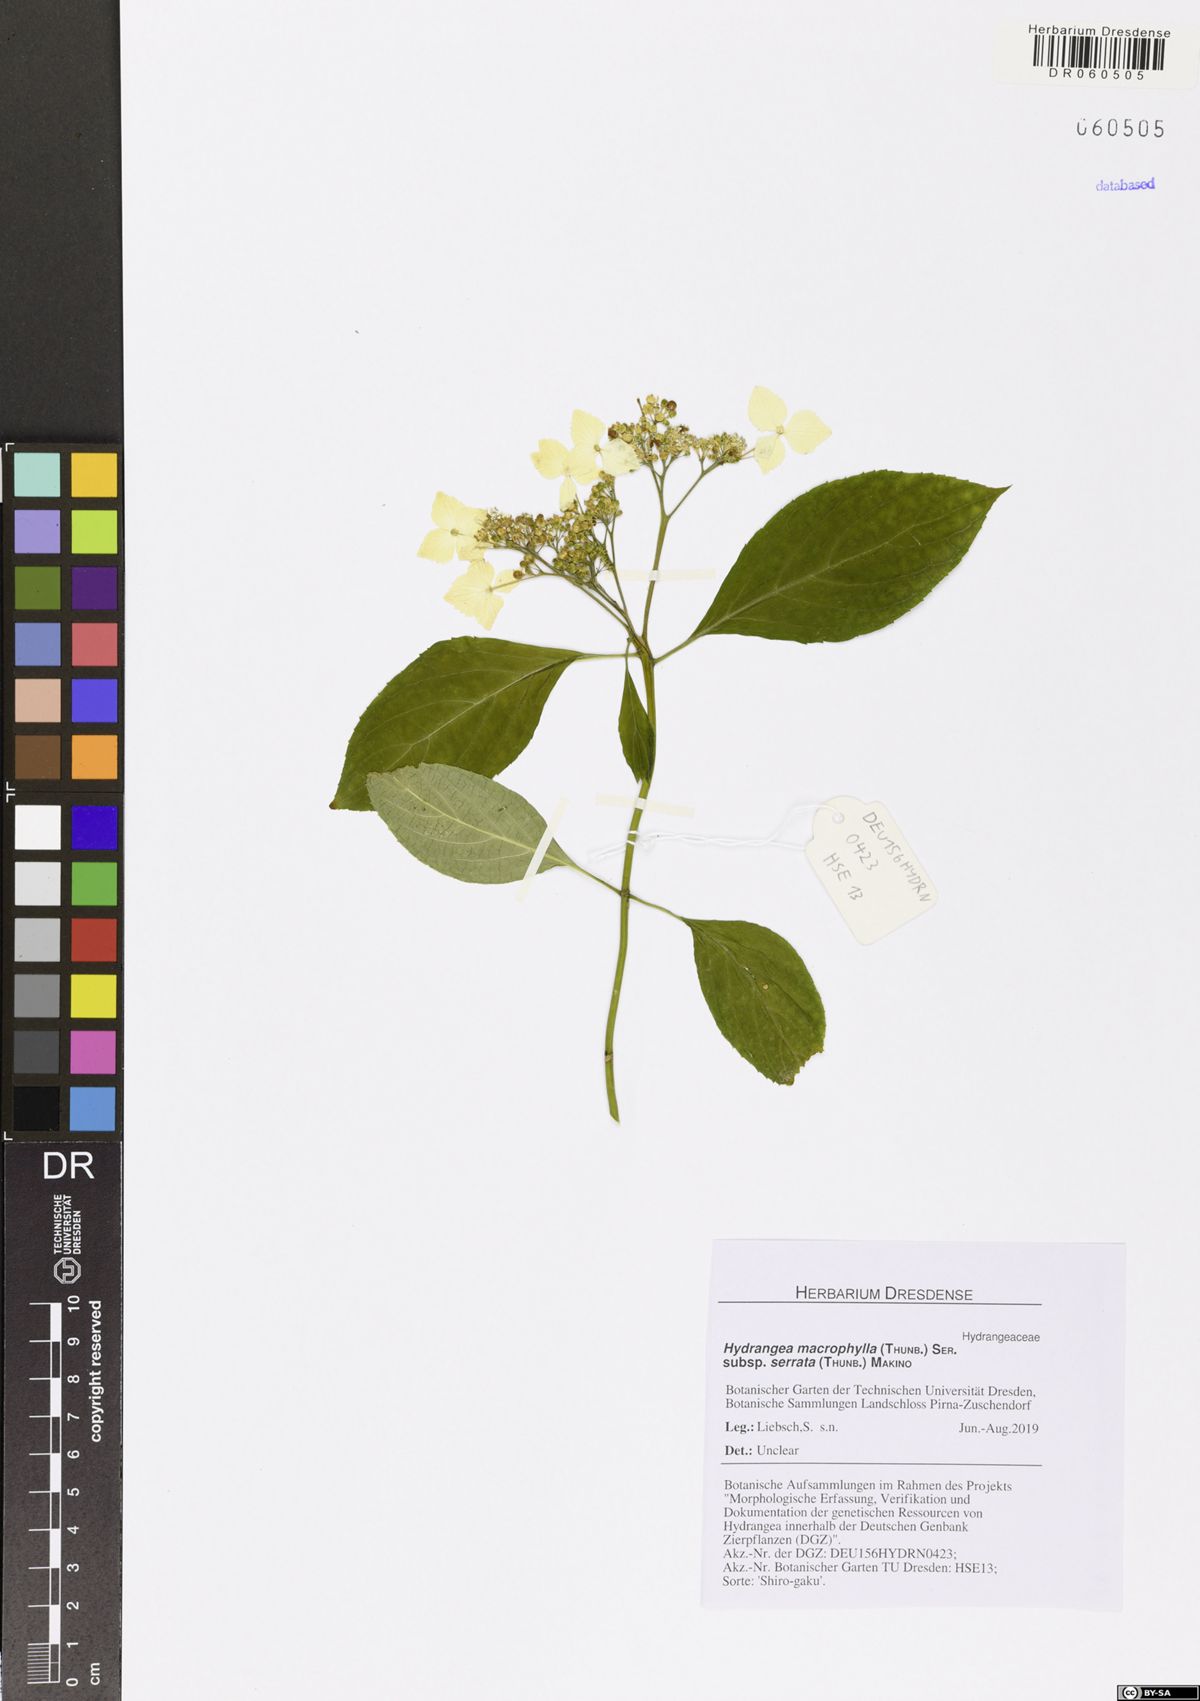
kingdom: Plantae
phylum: Tracheophyta
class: Magnoliopsida
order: Cornales
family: Hydrangeaceae
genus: Hydrangea
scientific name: Hydrangea serrata
